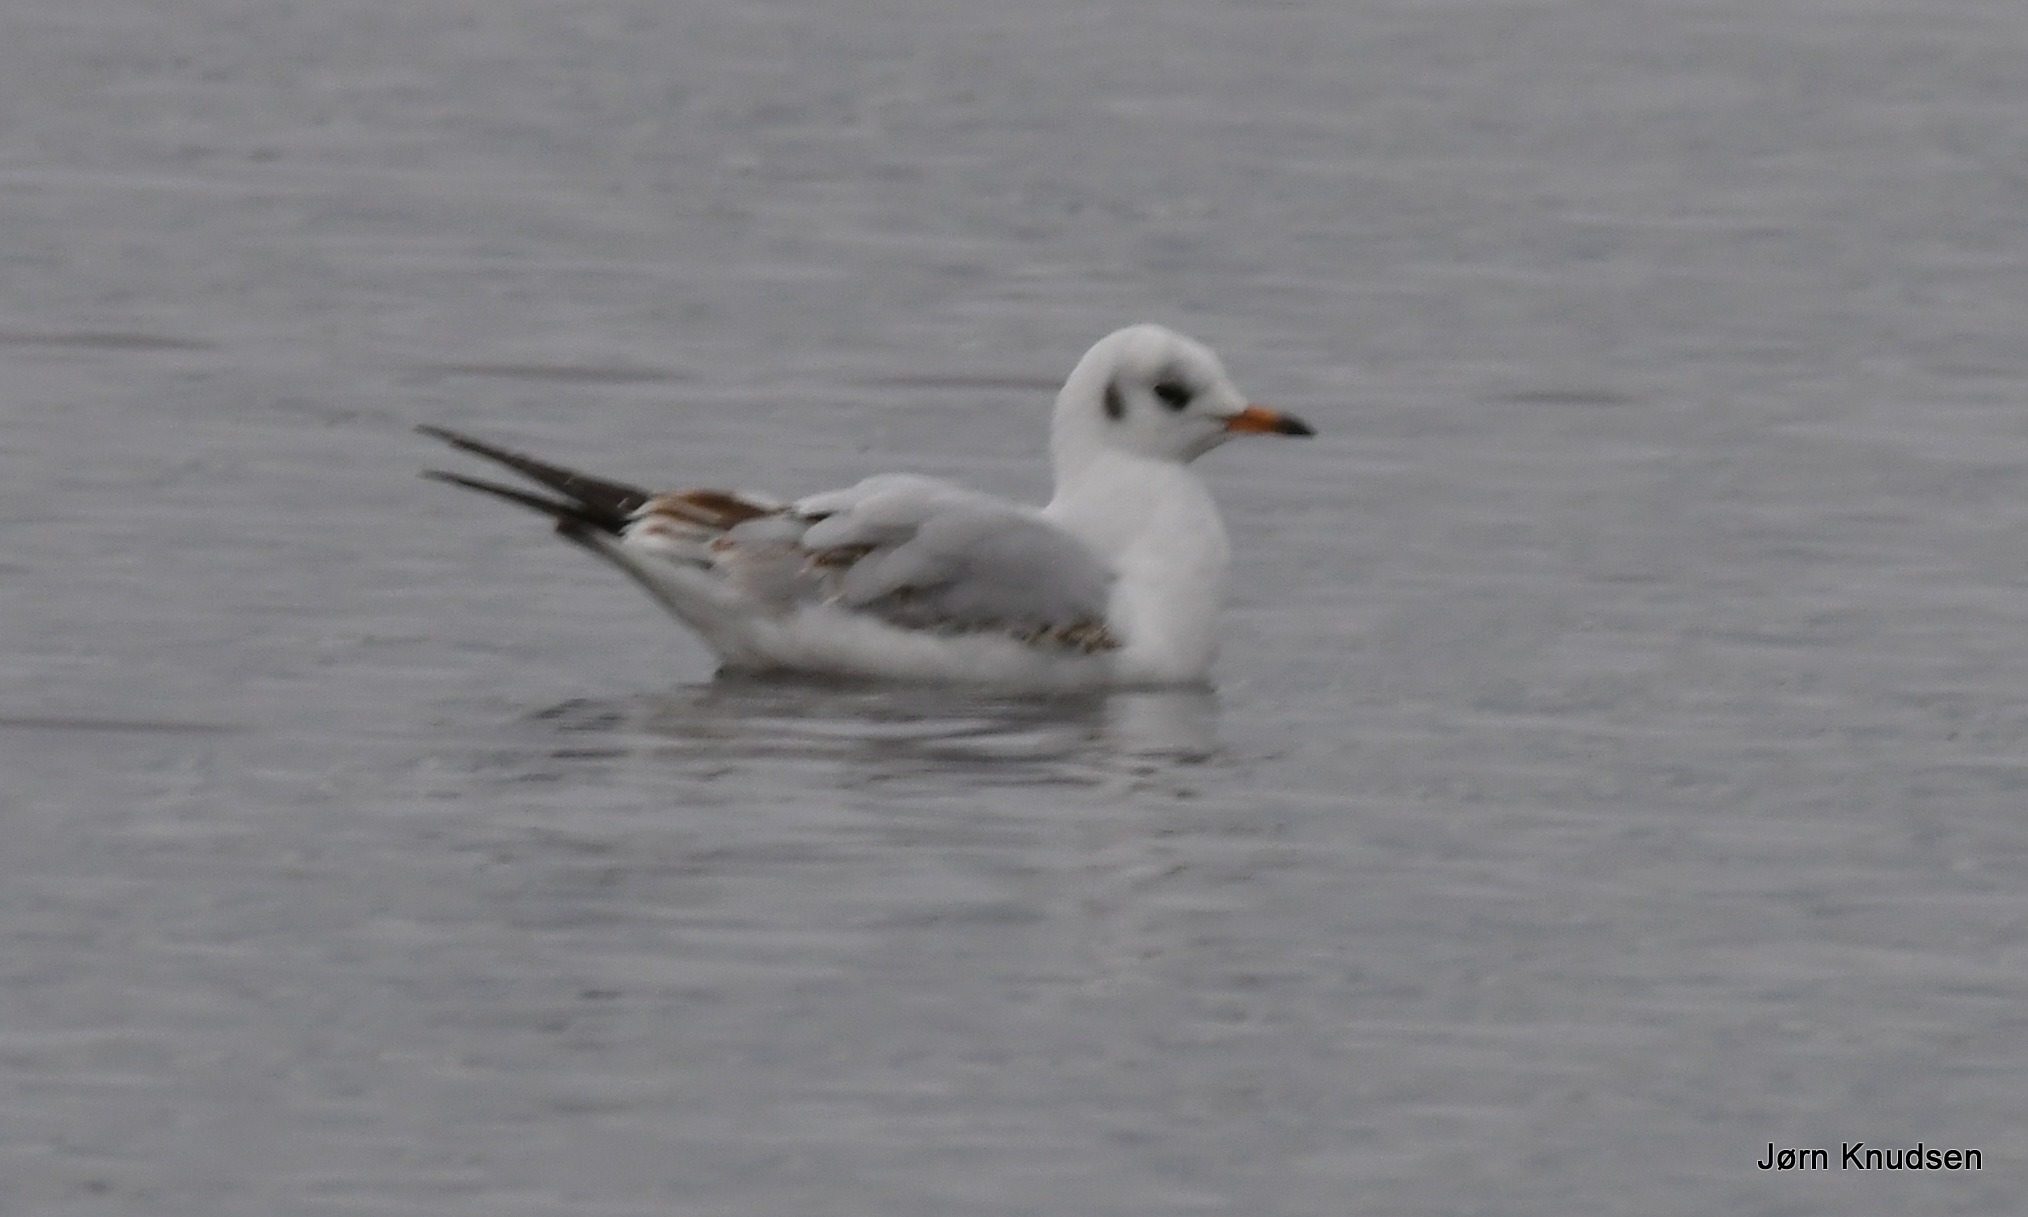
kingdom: Animalia
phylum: Chordata
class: Aves
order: Charadriiformes
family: Laridae
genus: Chroicocephalus
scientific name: Chroicocephalus ridibundus
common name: Hættemåge
